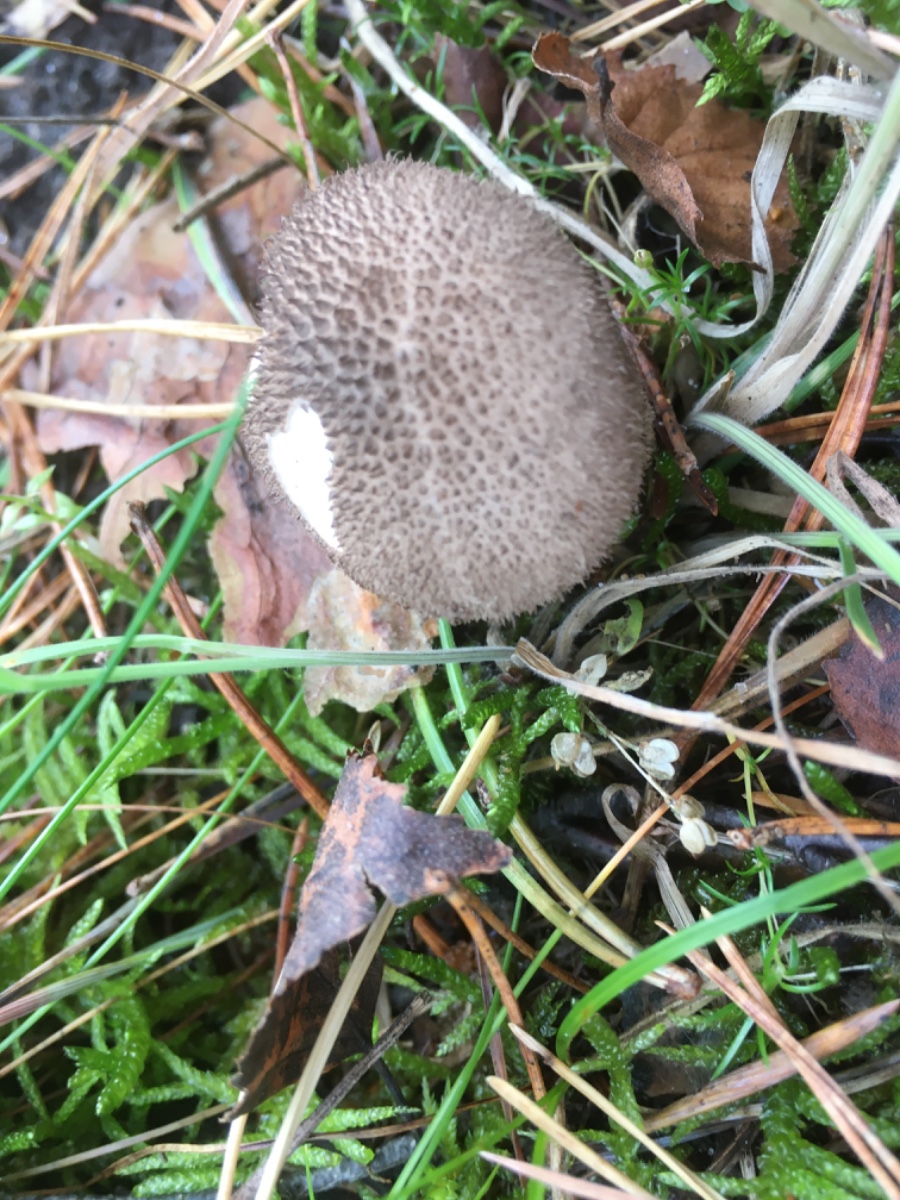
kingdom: Fungi
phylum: Basidiomycota
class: Agaricomycetes
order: Agaricales
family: Lycoperdaceae
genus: Lycoperdon
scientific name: Lycoperdon nigrescens
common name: sortagtig støvbold
